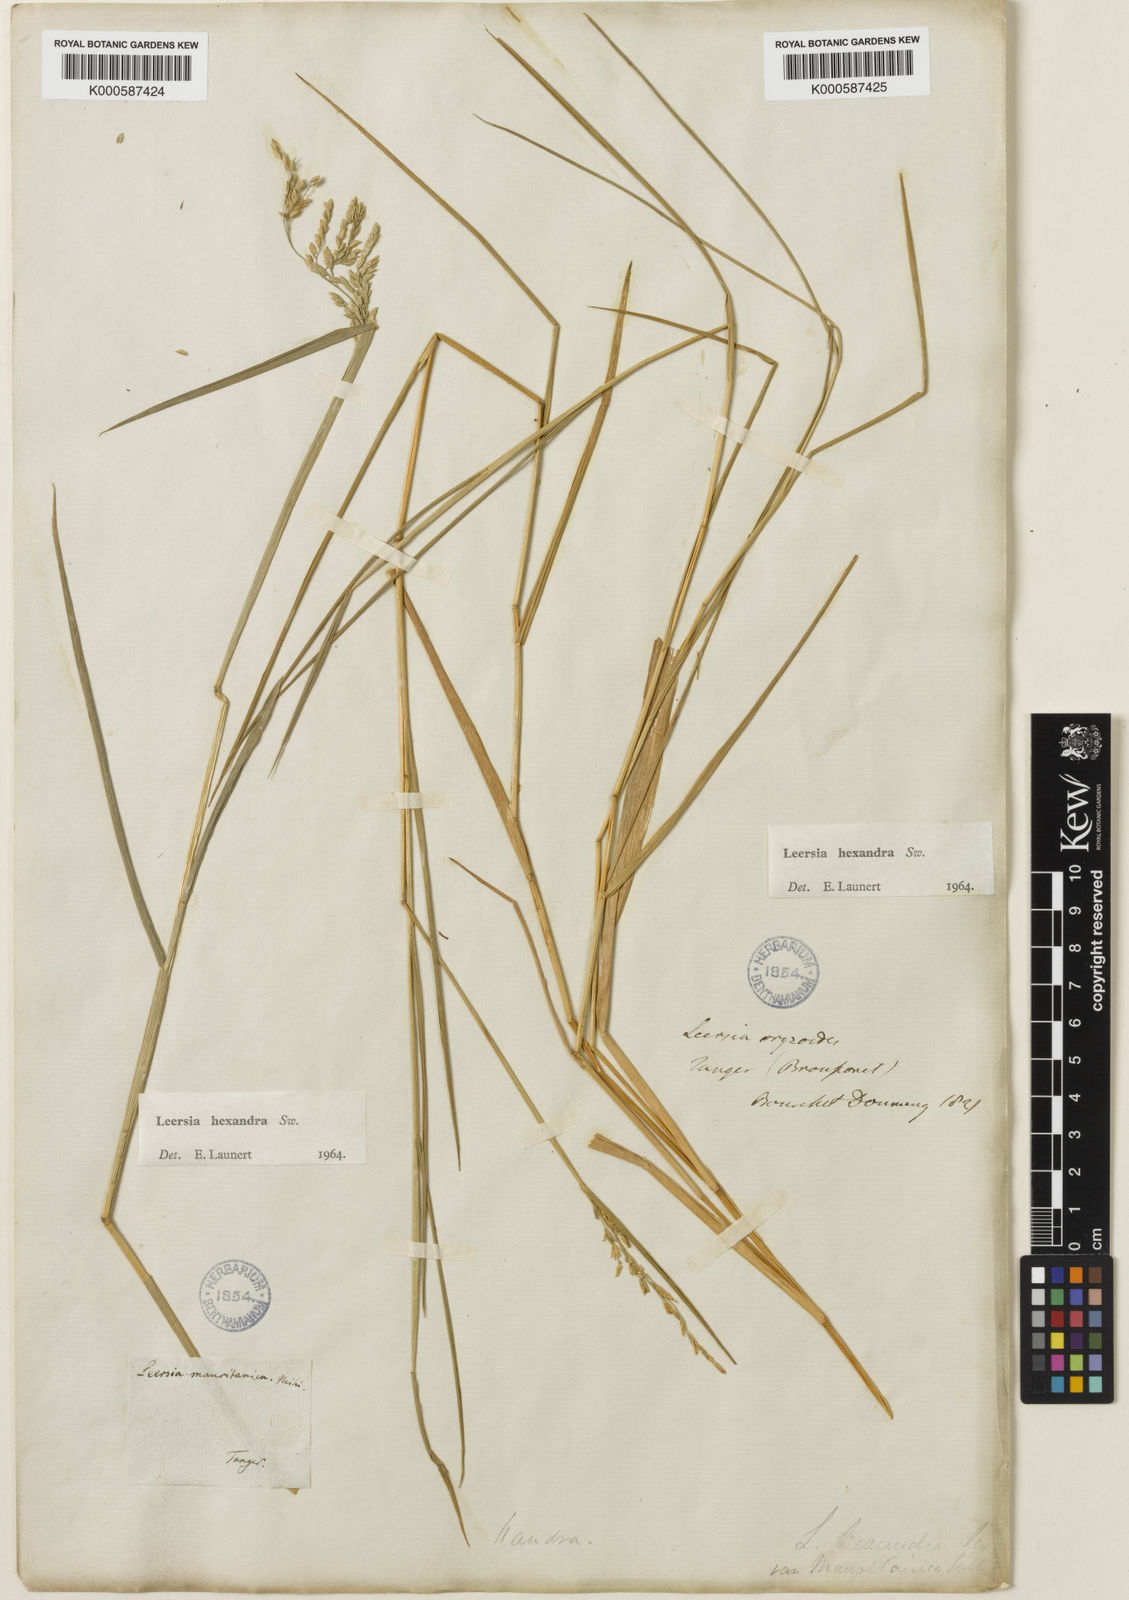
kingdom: Plantae
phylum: Tracheophyta
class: Liliopsida
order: Poales
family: Poaceae
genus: Leersia
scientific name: Leersia hexandra
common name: Southern cut grass
